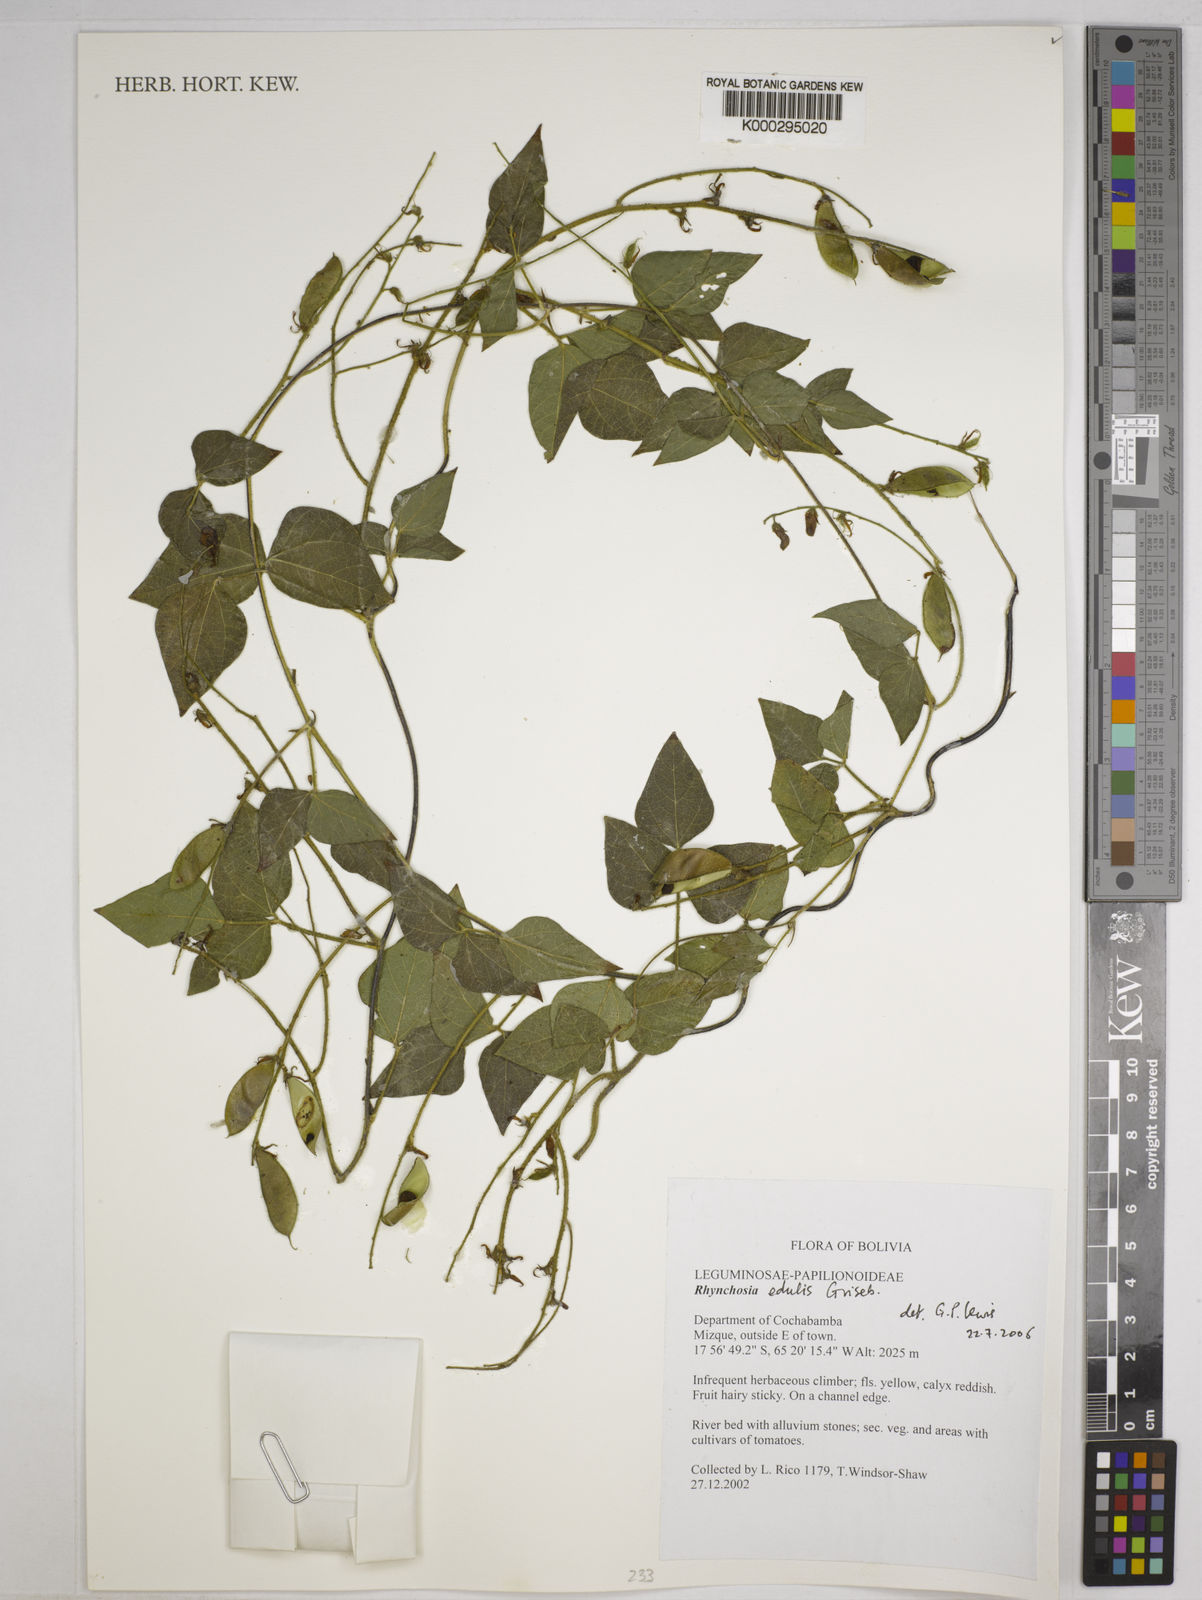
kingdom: Plantae
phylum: Tracheophyta
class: Magnoliopsida
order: Fabales
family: Fabaceae
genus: Rhynchosia
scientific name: Rhynchosia edulis
